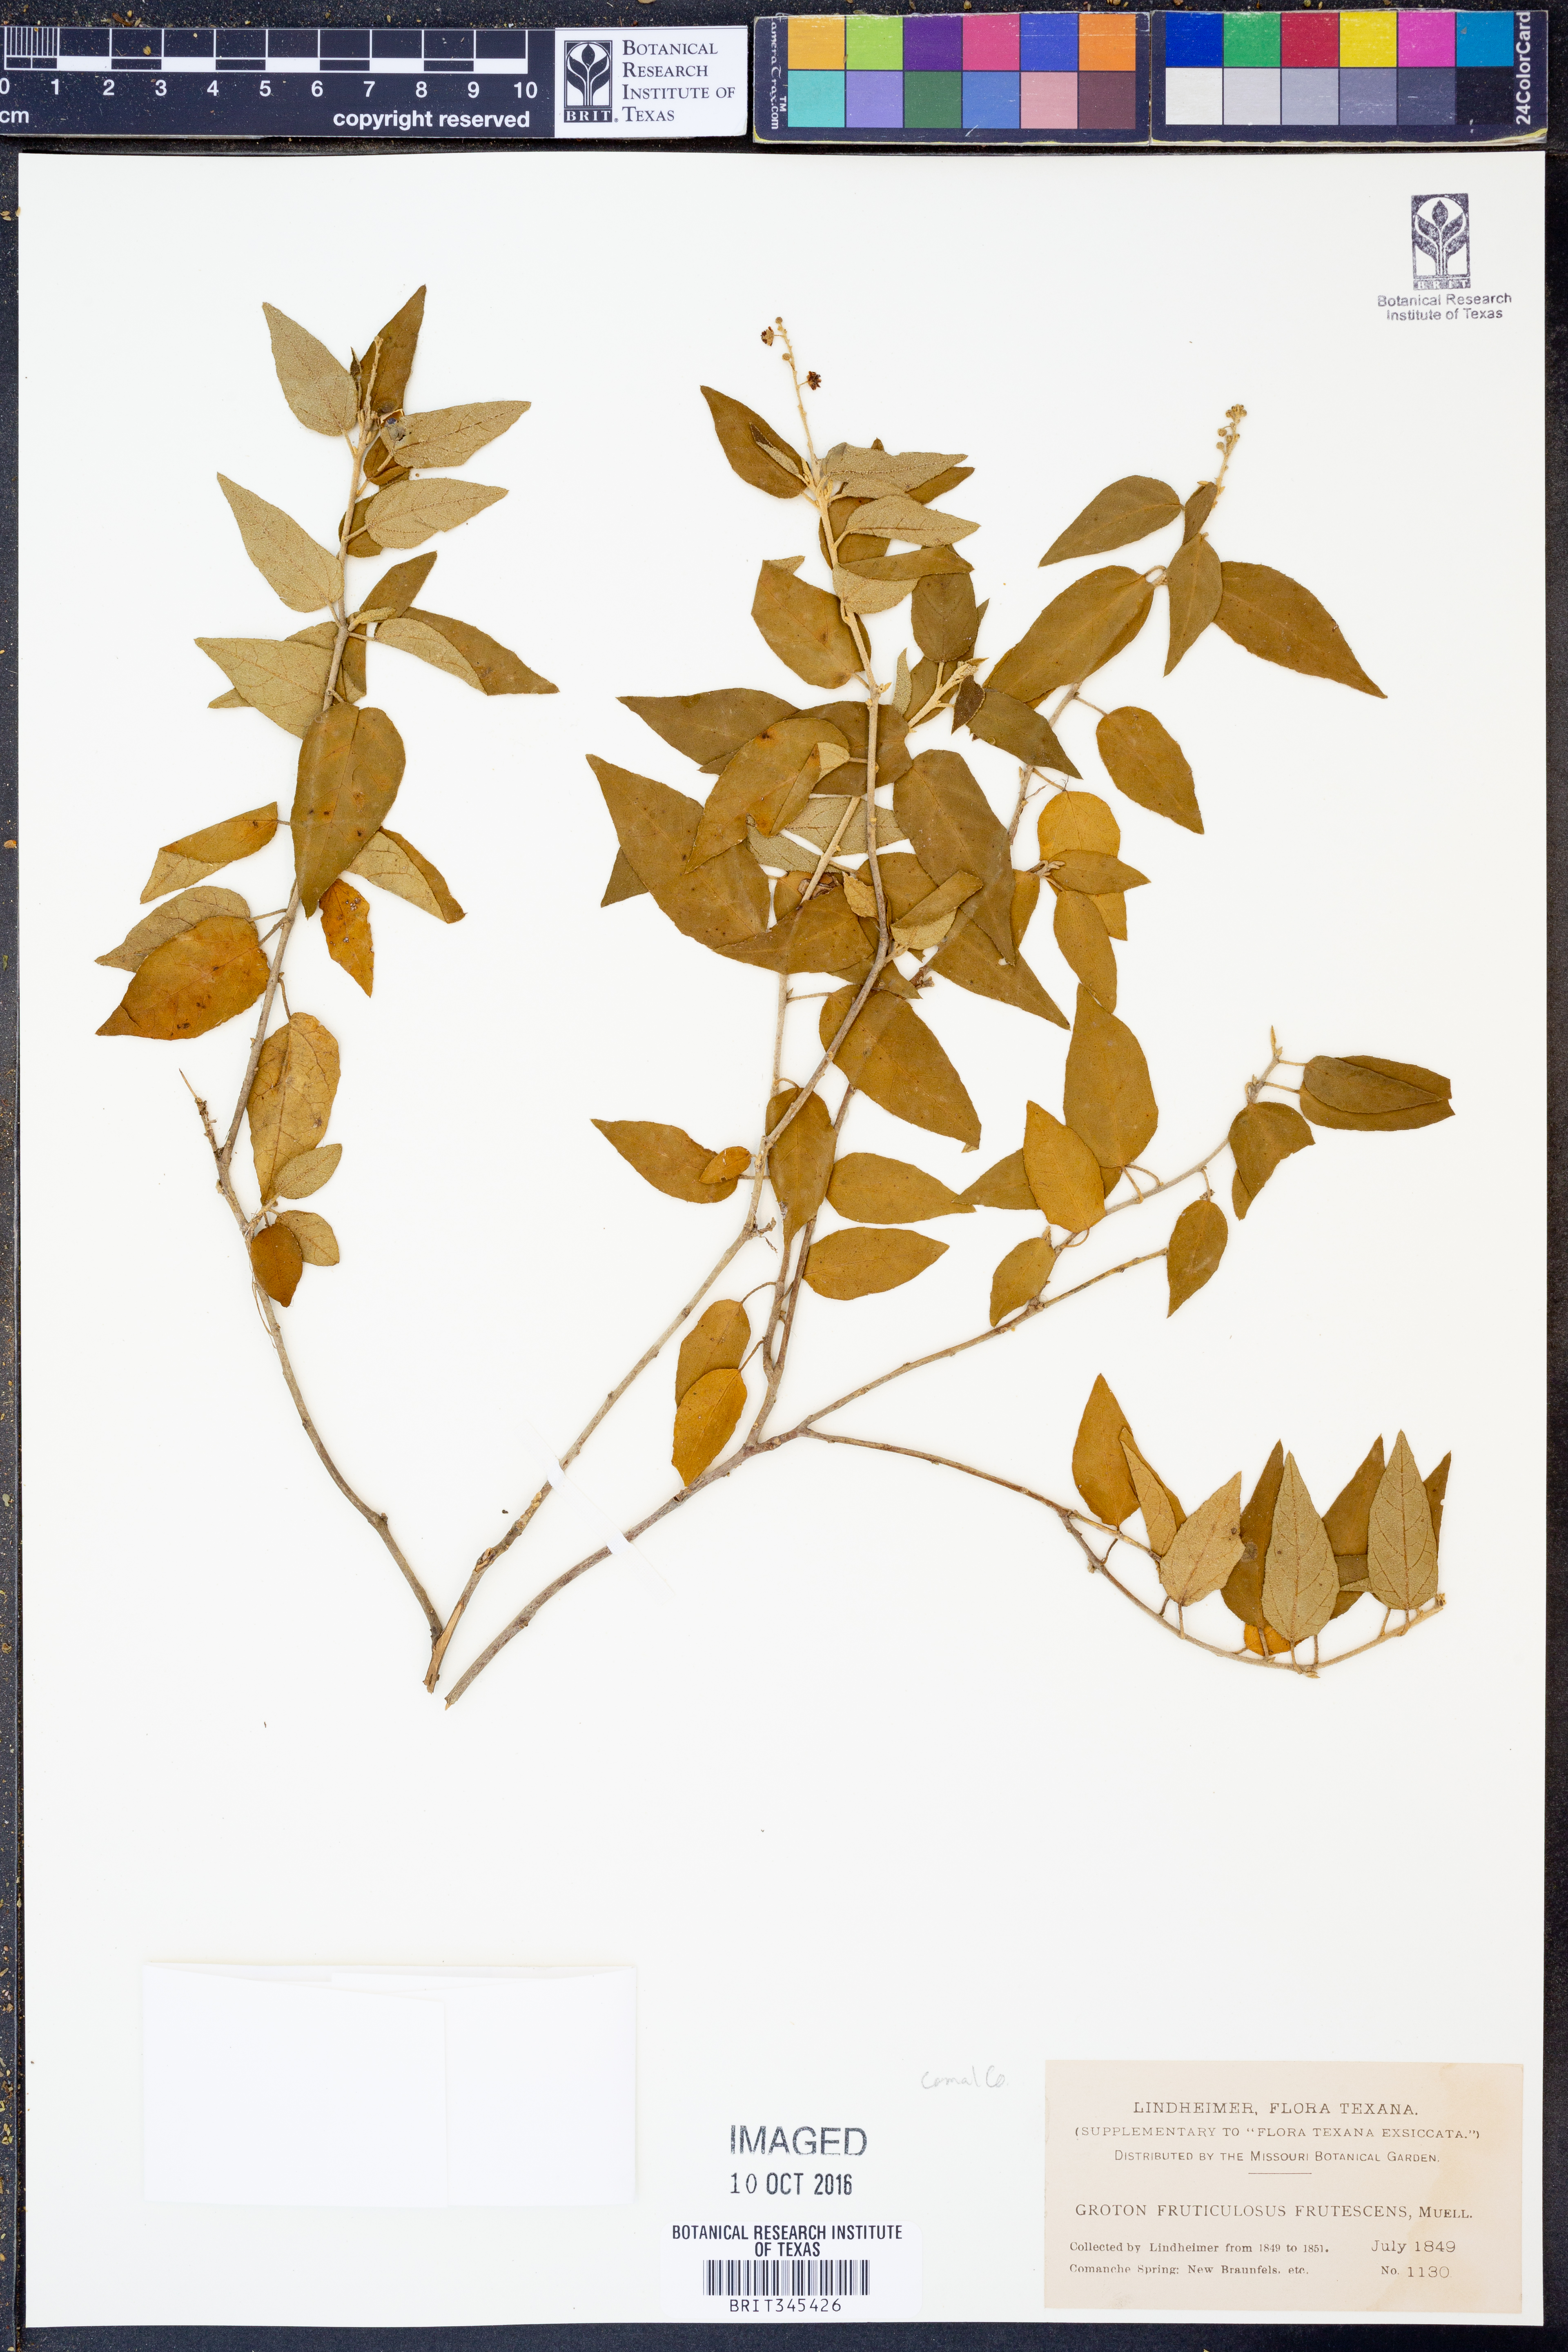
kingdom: Plantae
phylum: Tracheophyta
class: Magnoliopsida
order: Malpighiales
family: Euphorbiaceae
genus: Croton
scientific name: Croton fruticulosus
